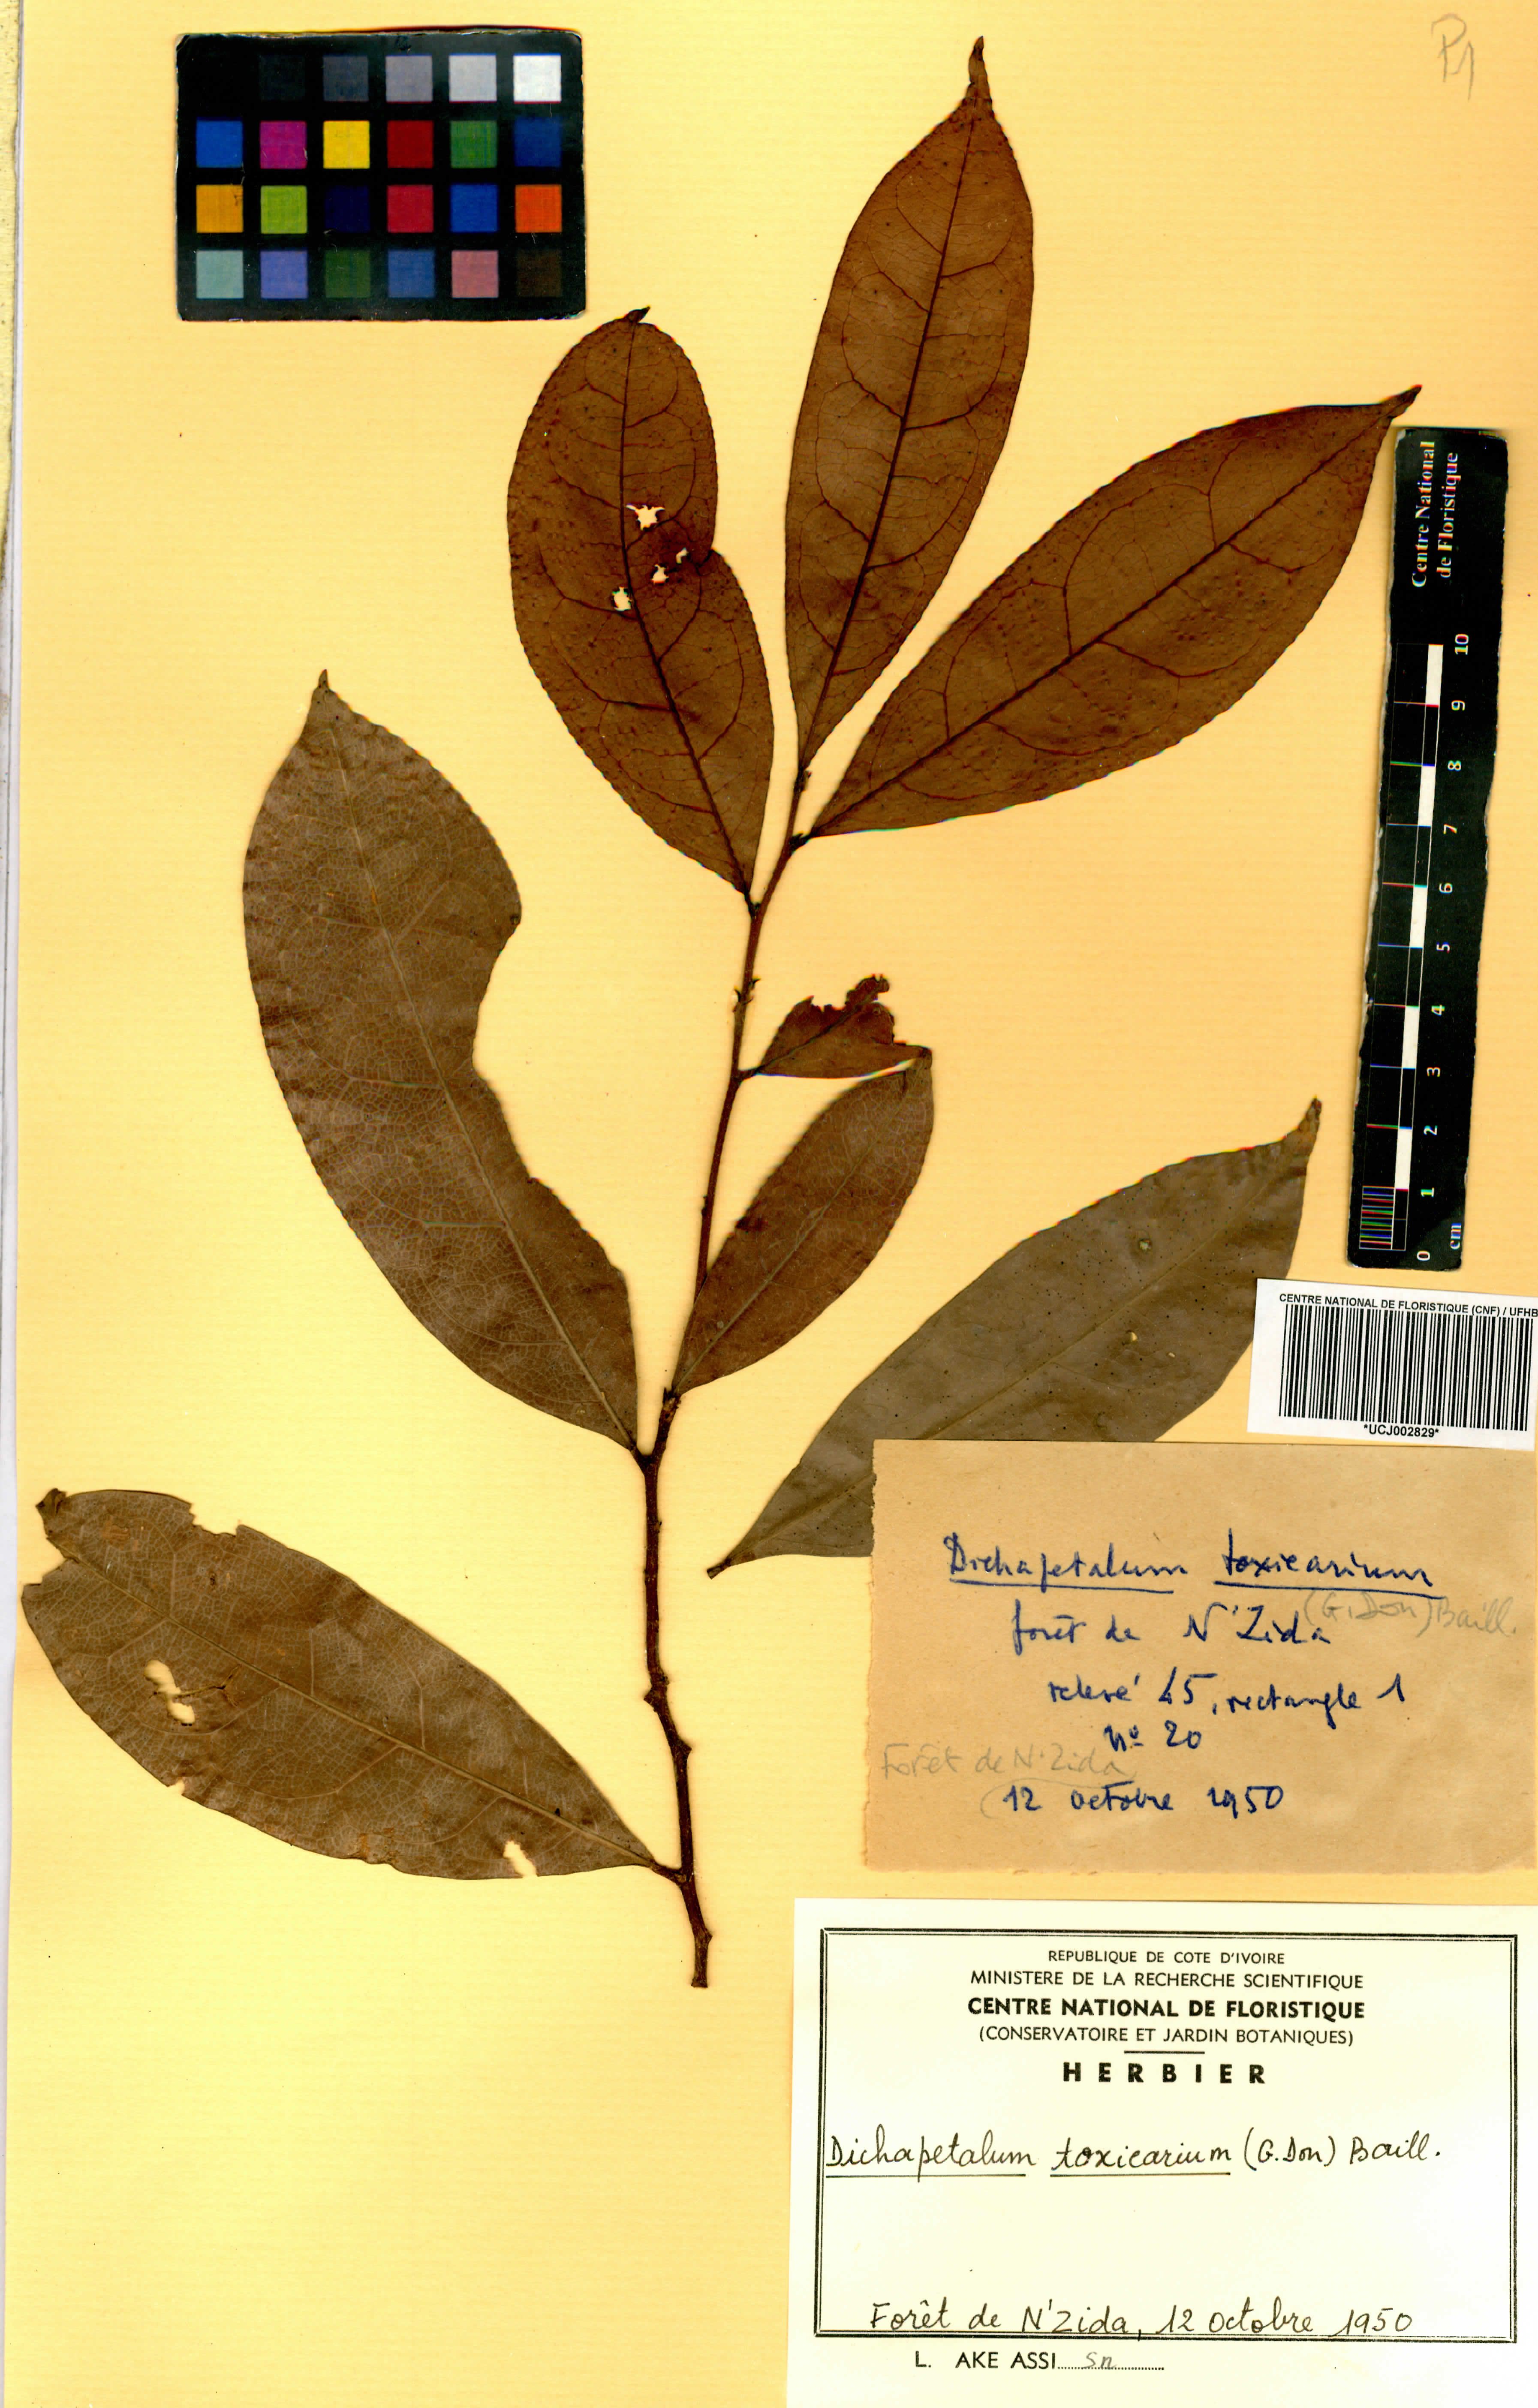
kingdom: Plantae
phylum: Tracheophyta
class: Magnoliopsida
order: Malpighiales
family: Dichapetalaceae
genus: Dichapetalum
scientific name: Dichapetalum toxicarium
